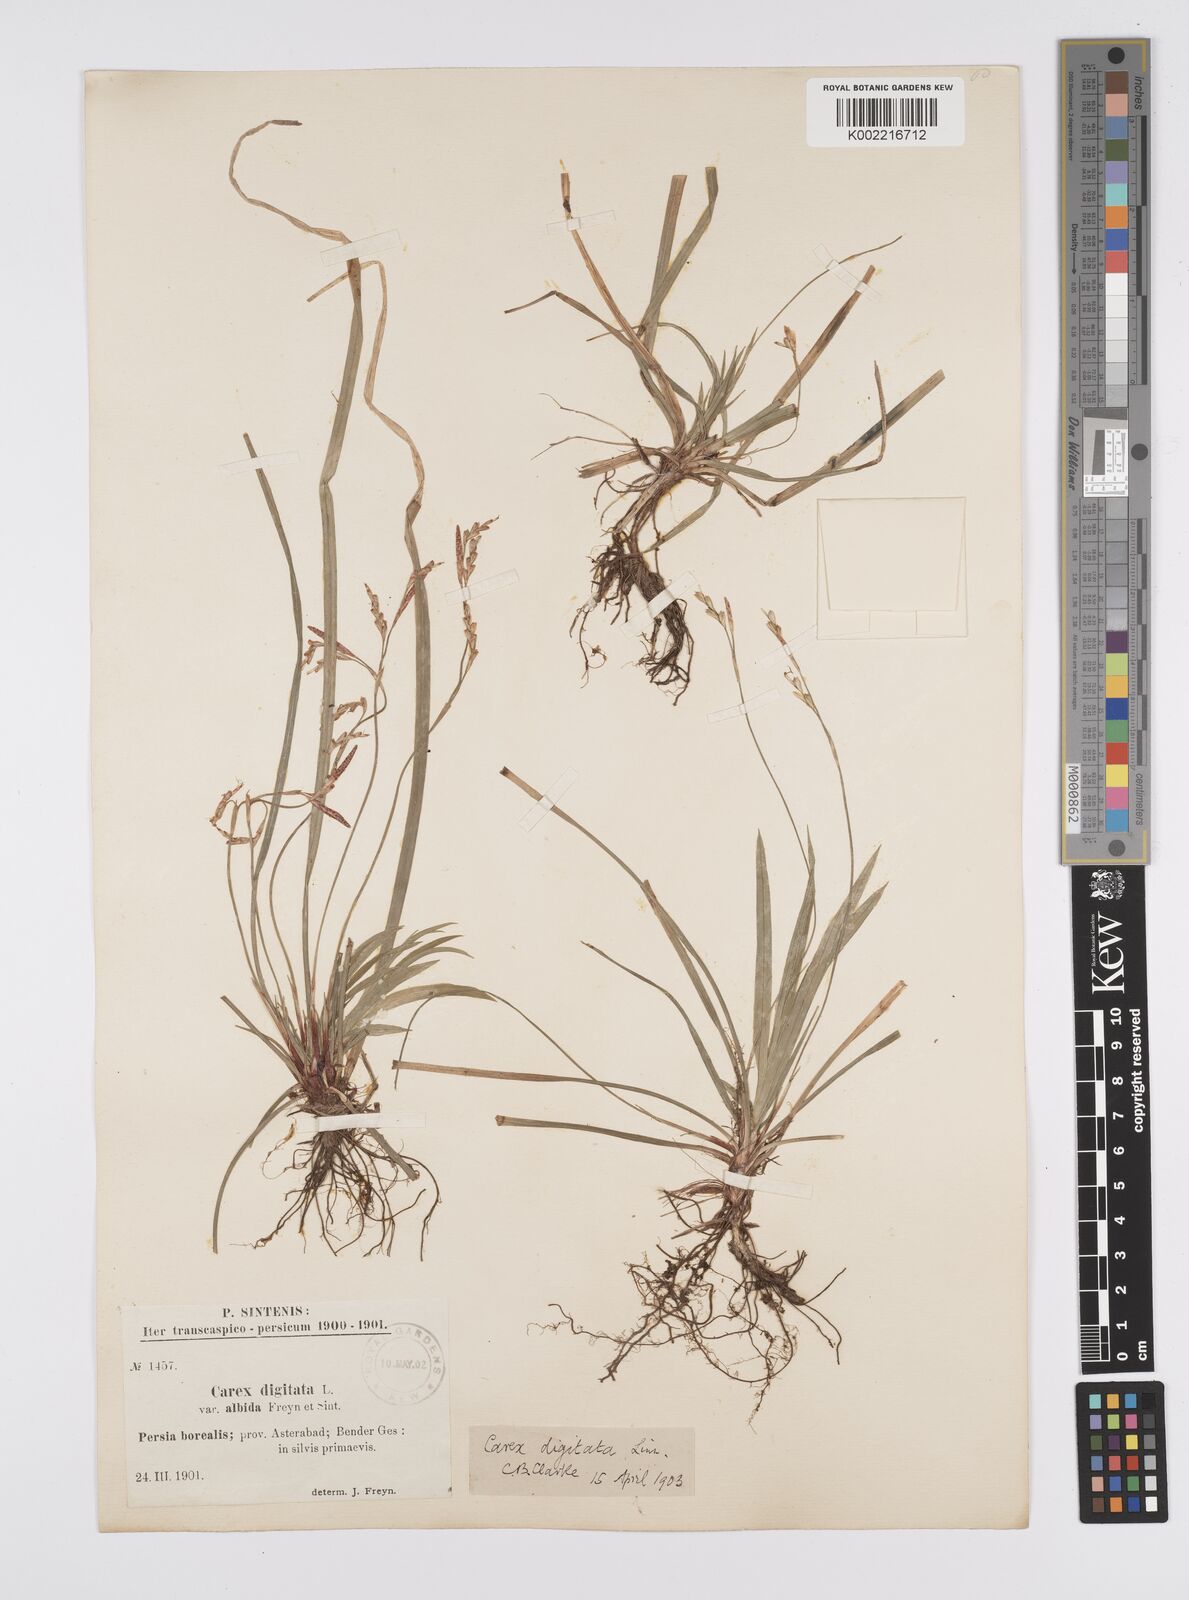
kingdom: Plantae
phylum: Tracheophyta
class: Liliopsida
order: Poales
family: Cyperaceae
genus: Carex
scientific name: Carex digitata
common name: Fingered sedge
